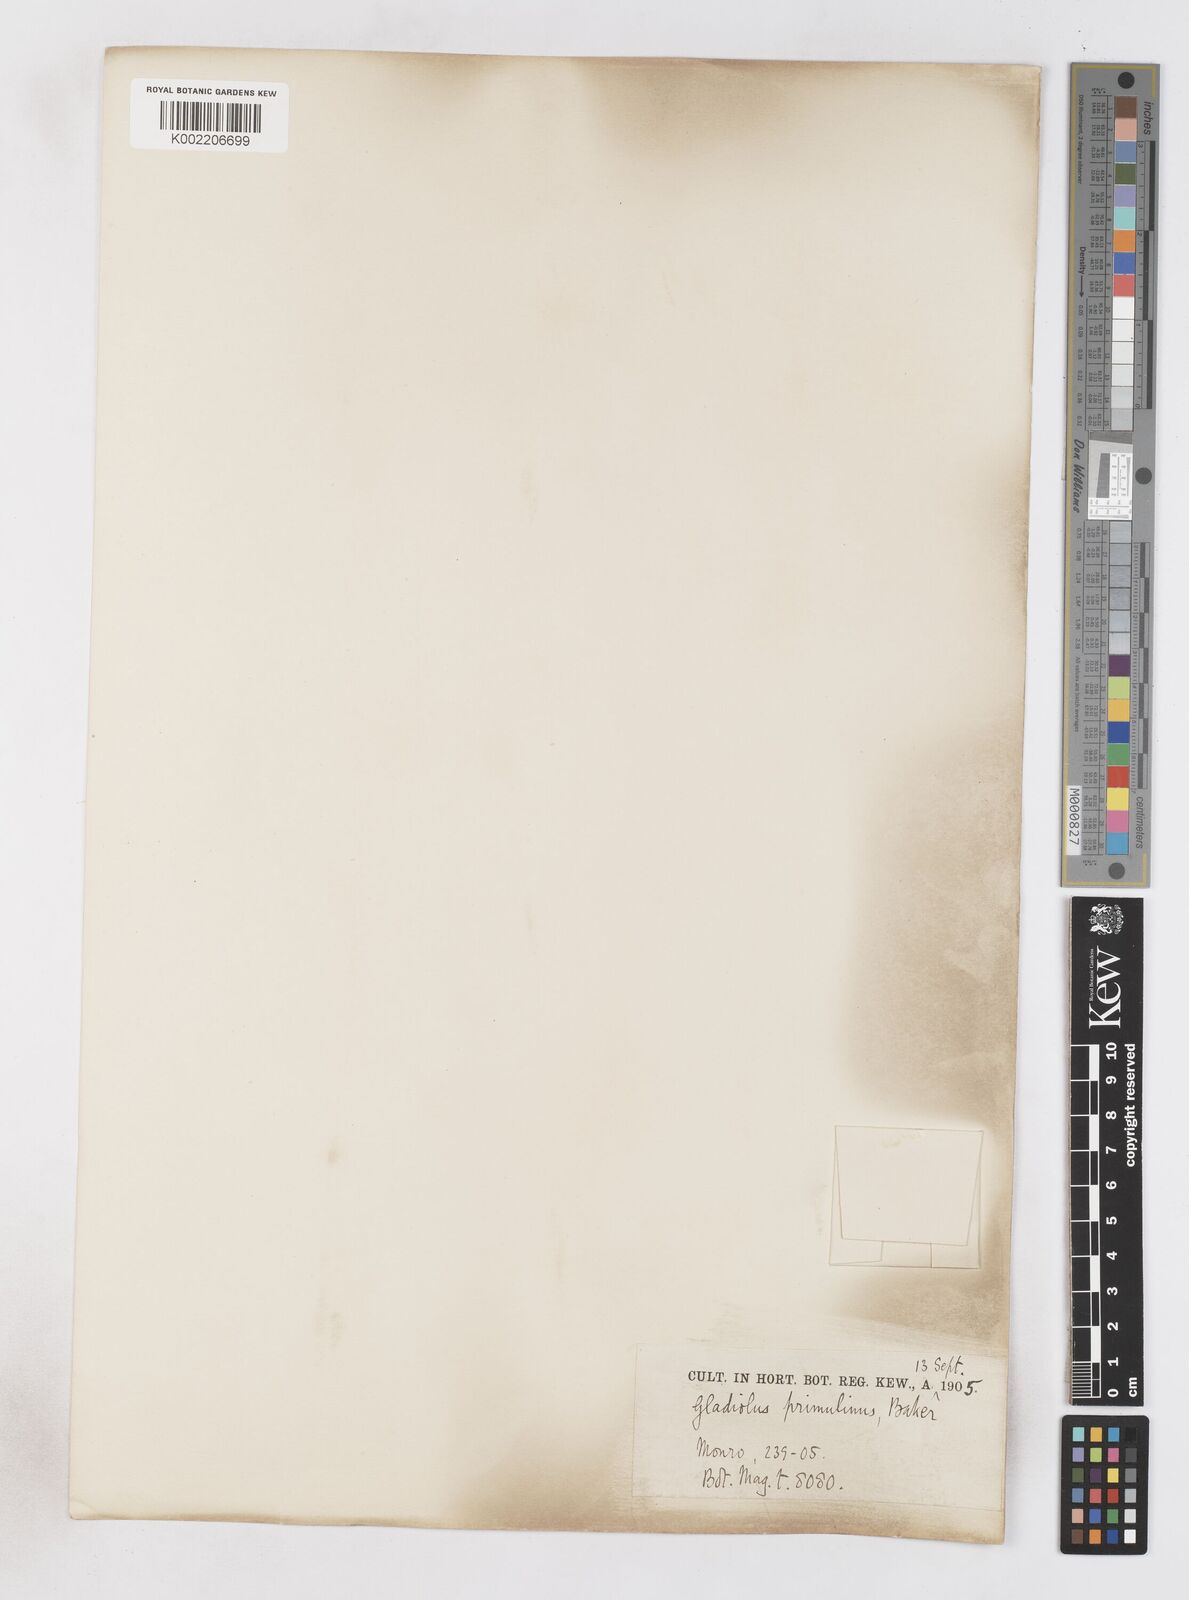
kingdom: Plantae
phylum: Tracheophyta
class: Liliopsida
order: Asparagales
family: Iridaceae
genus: Gladiolus
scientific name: Gladiolus dalenii
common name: Cornflag
